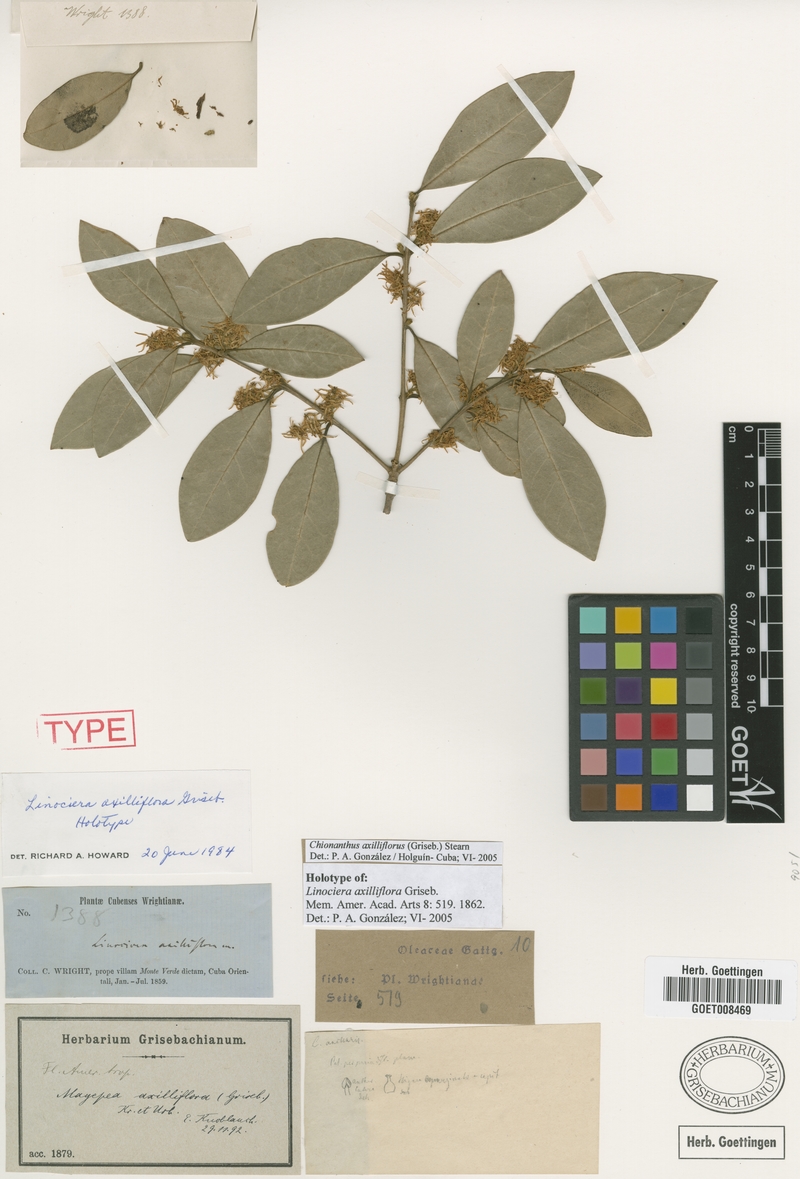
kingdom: Plantae
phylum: Tracheophyta
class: Magnoliopsida
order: Lamiales
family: Oleaceae
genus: Chionanthus
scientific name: Chionanthus axilliflorus
